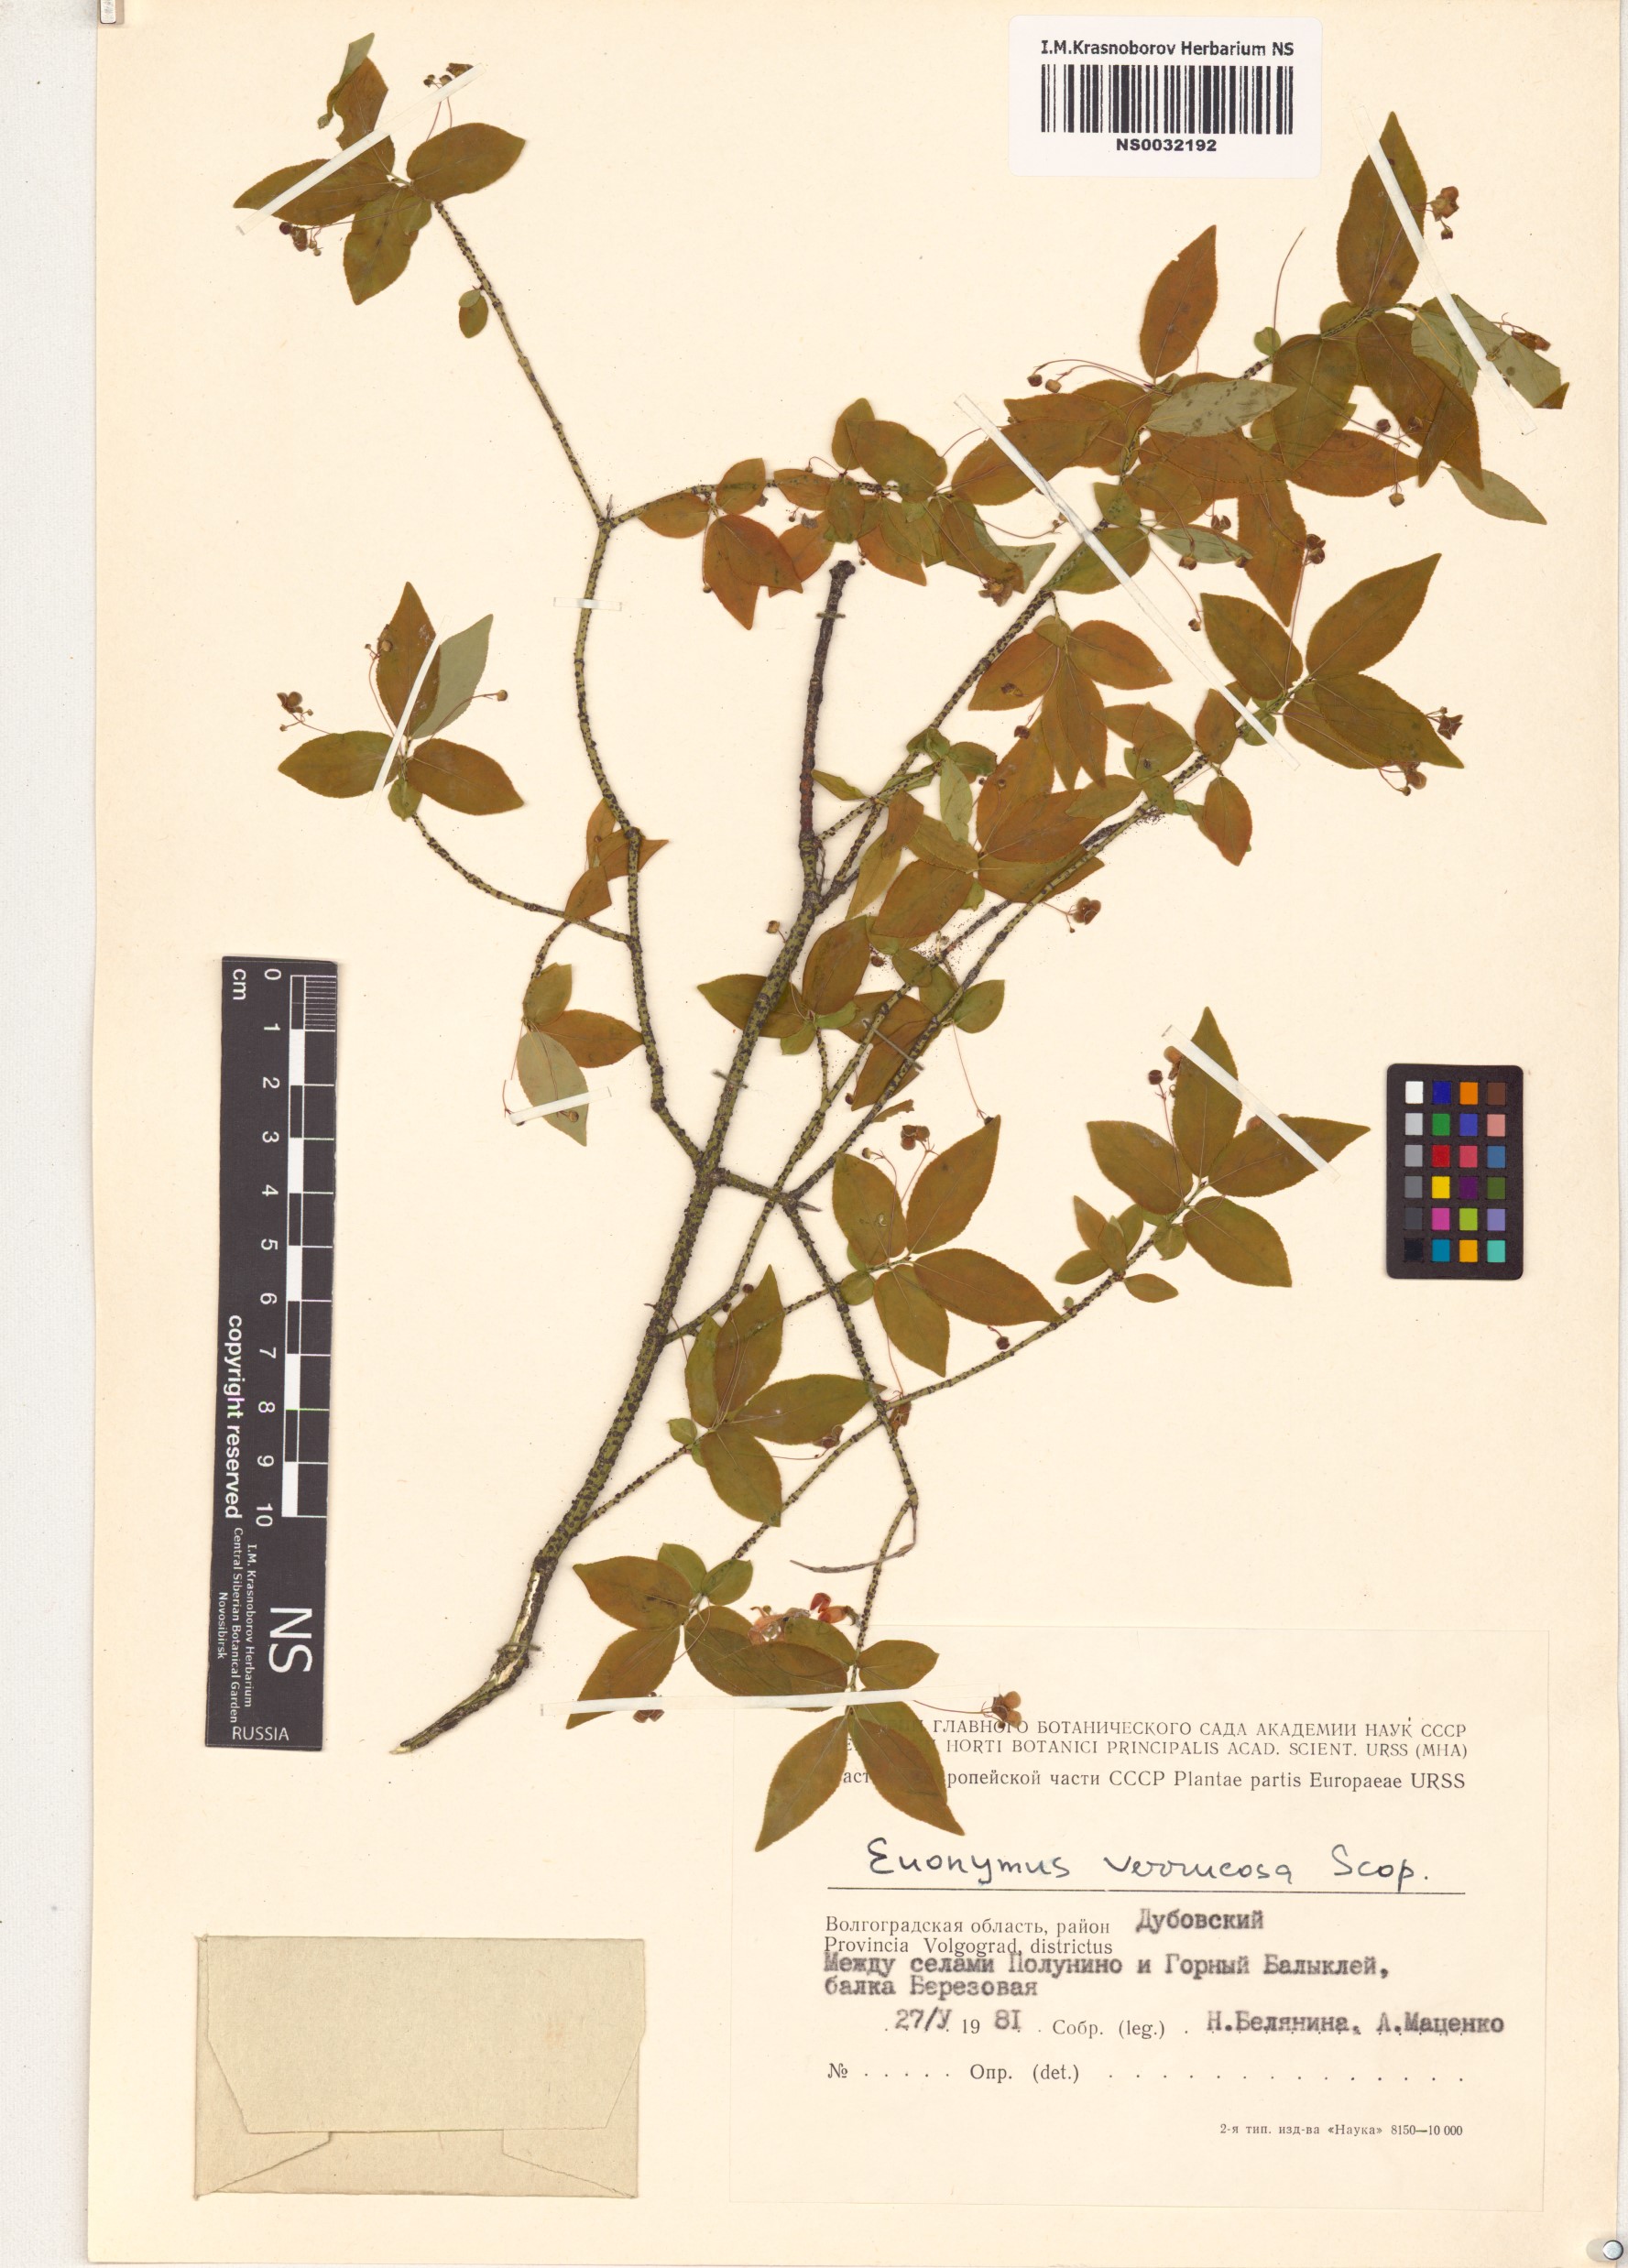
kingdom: Plantae
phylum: Tracheophyta
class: Magnoliopsida
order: Celastrales
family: Celastraceae
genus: Euonymus
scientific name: Euonymus verrucosus
